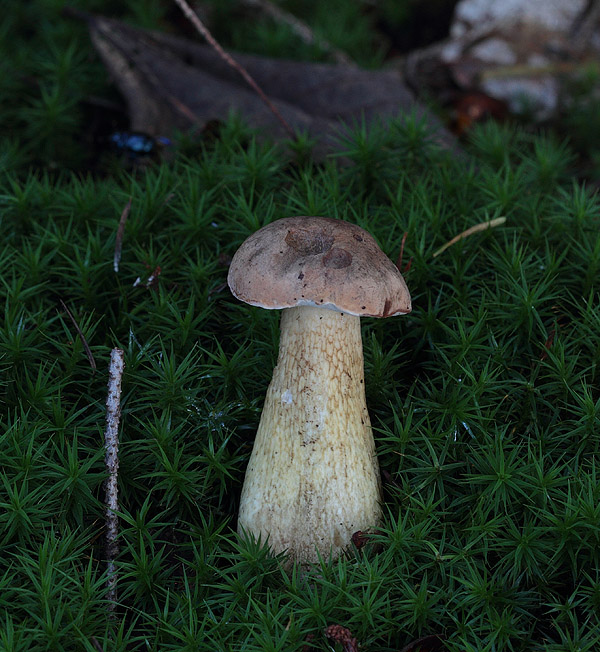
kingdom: Fungi
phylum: Basidiomycota
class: Agaricomycetes
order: Boletales
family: Boletaceae
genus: Tylopilus
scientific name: Tylopilus felleus
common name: galderørhat
